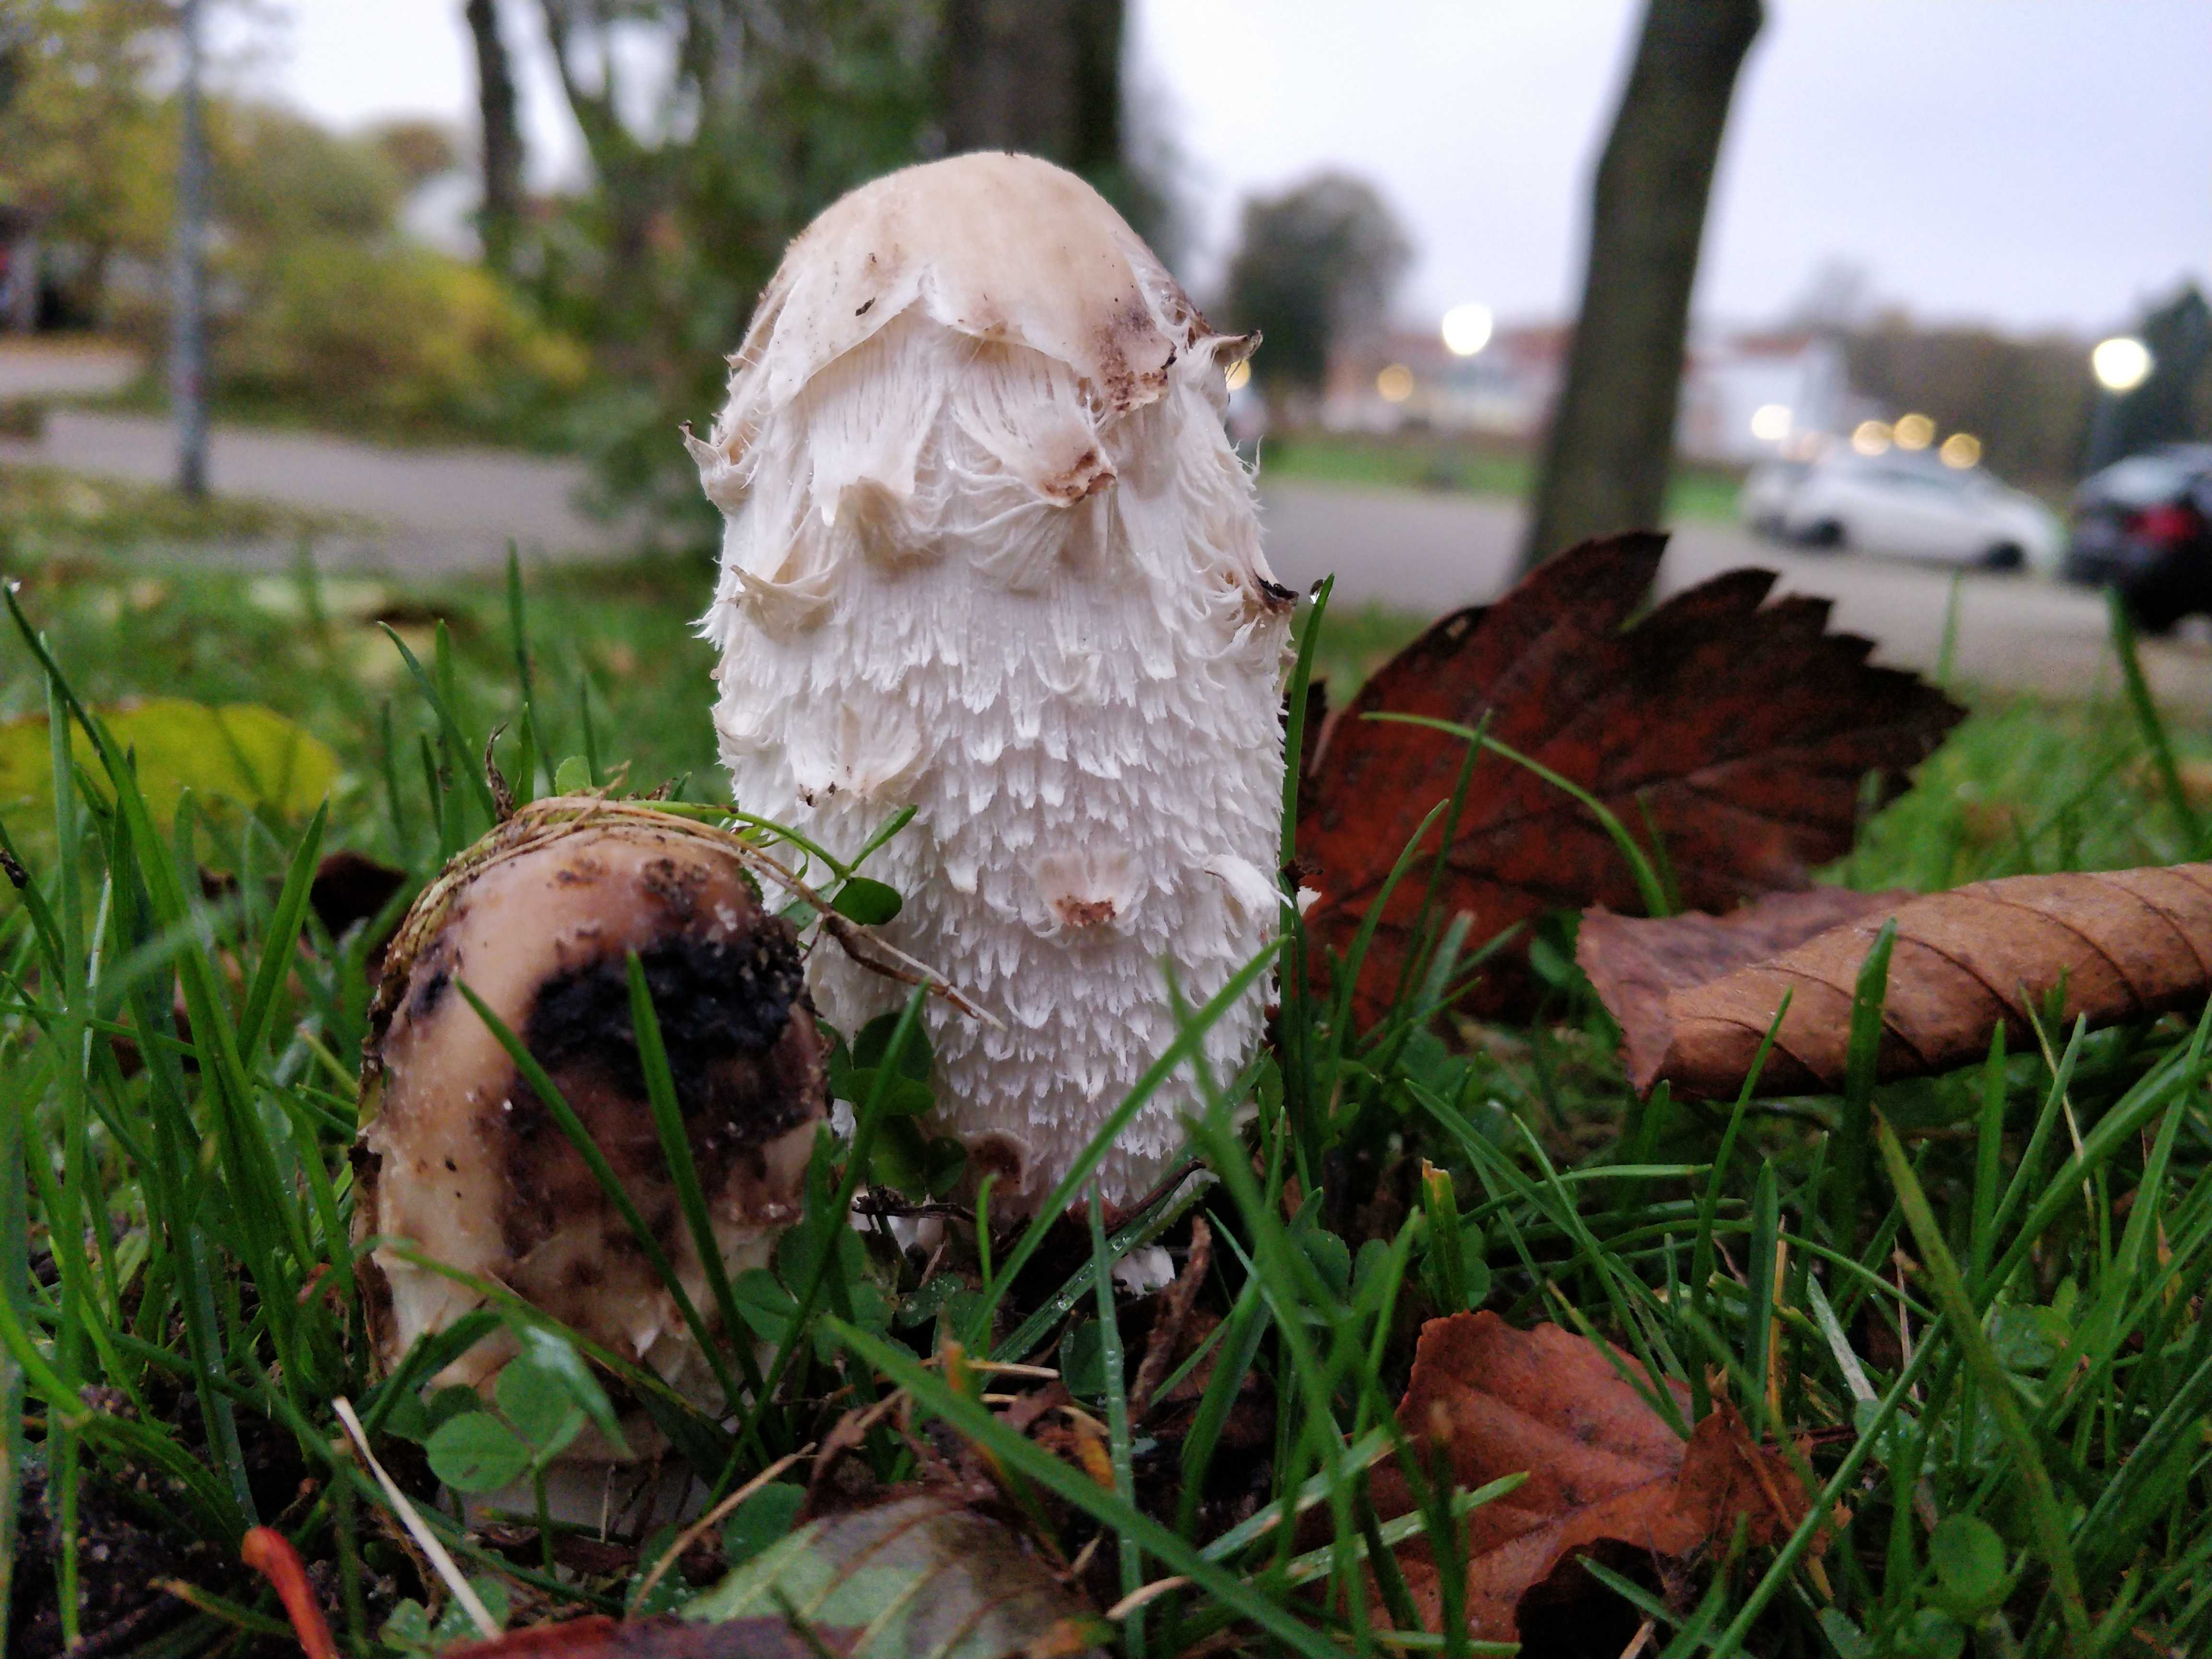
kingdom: Fungi
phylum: Basidiomycota
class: Agaricomycetes
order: Agaricales
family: Agaricaceae
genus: Coprinus
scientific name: Coprinus comatus
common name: stor parykhat
